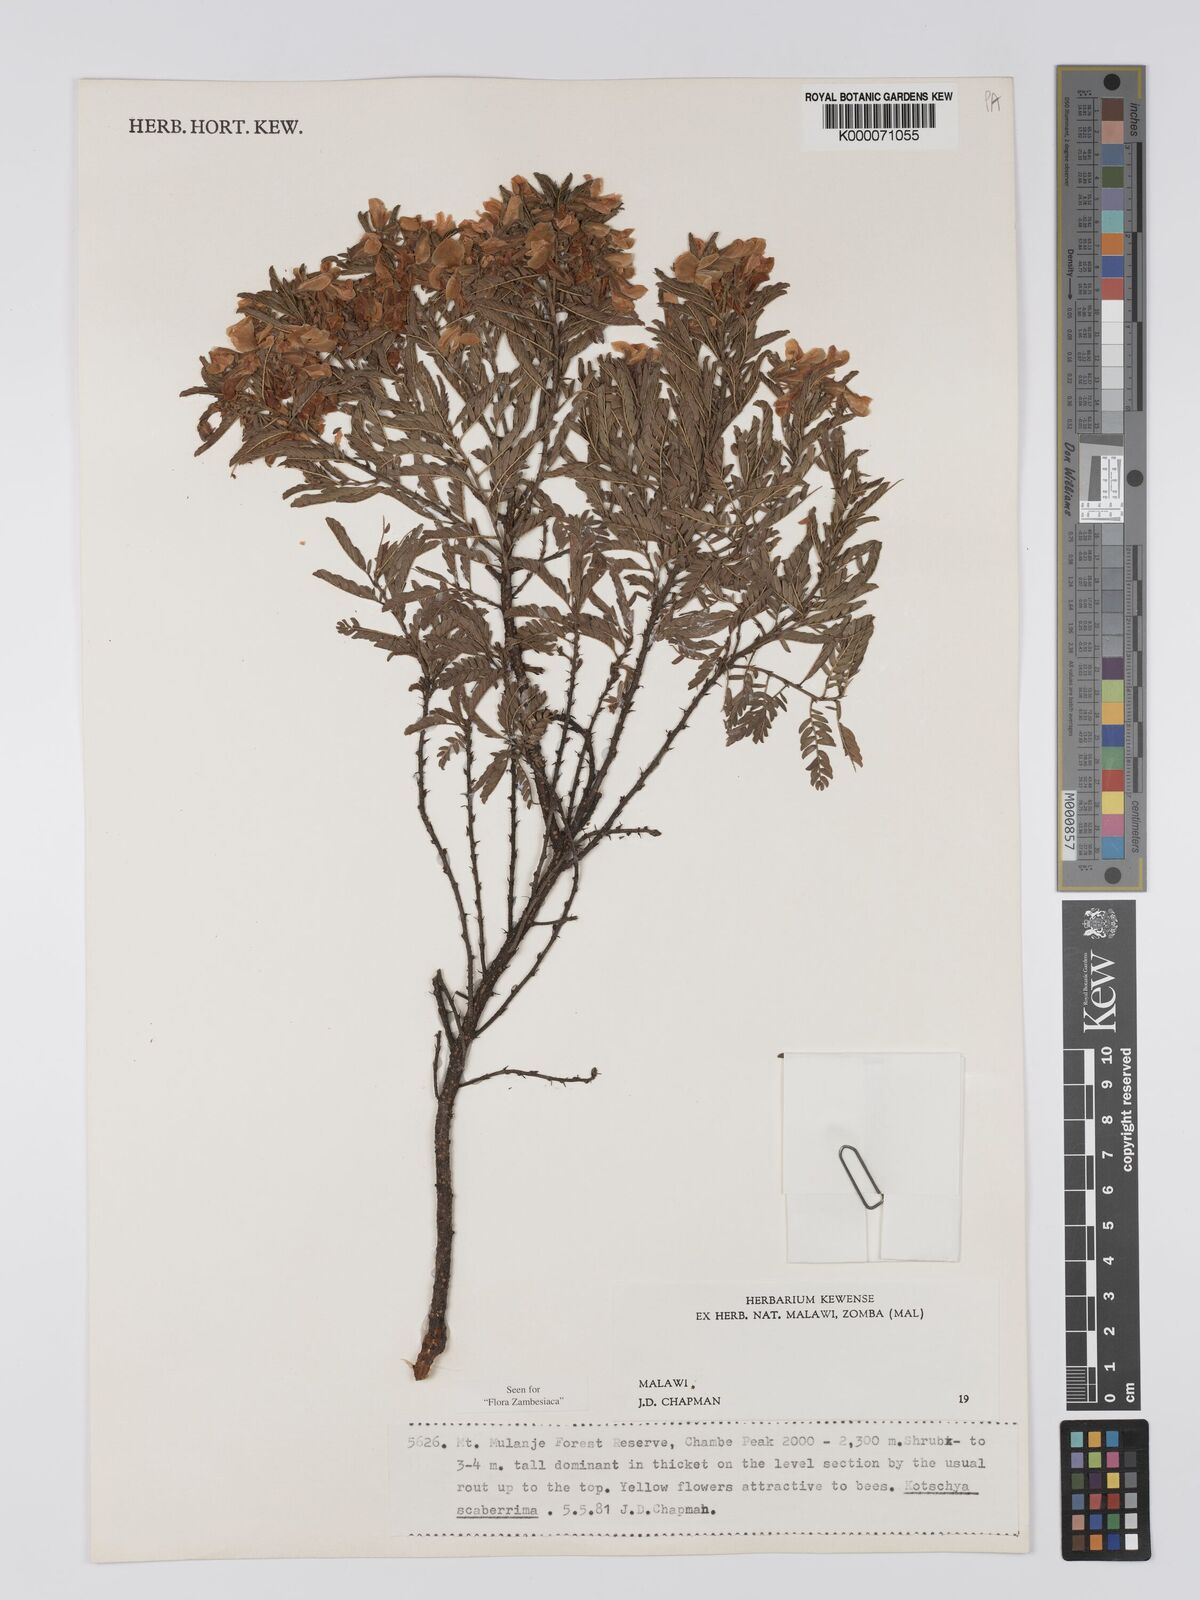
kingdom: Plantae
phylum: Tracheophyta
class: Magnoliopsida
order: Fabales
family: Fabaceae
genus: Kotschya
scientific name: Kotschya scaberrima
